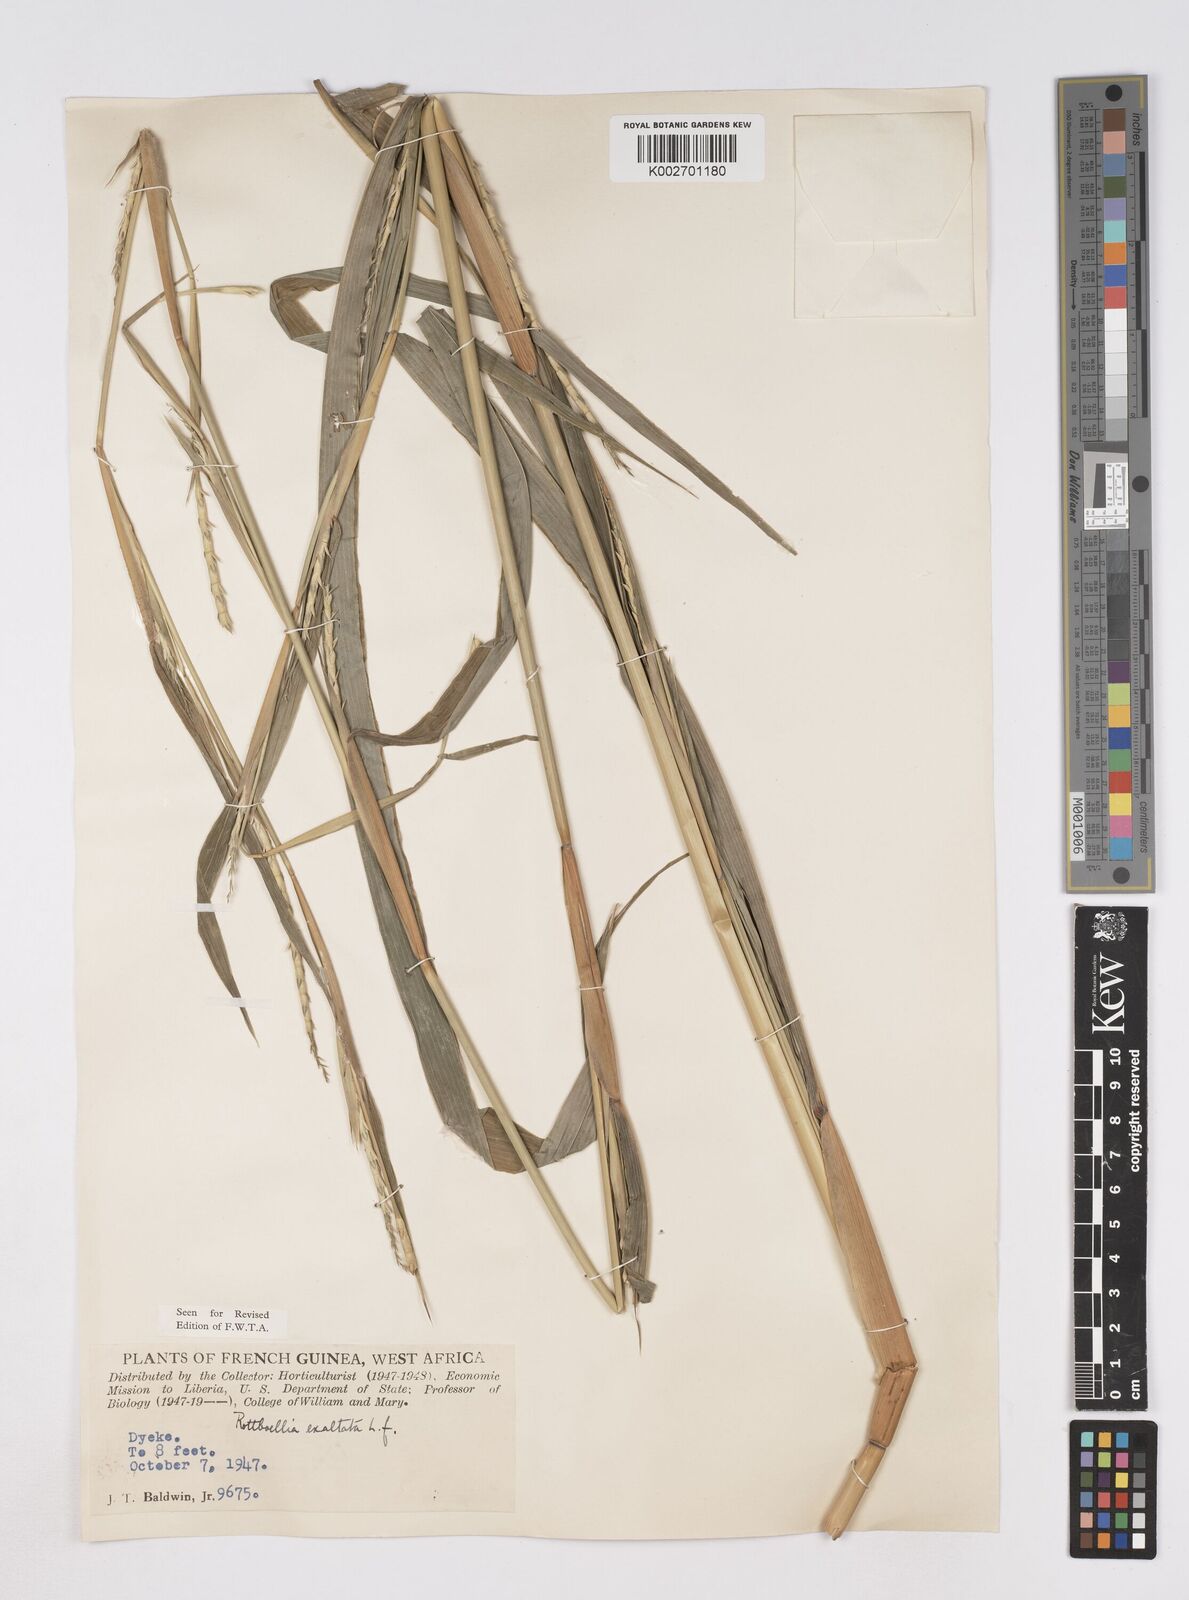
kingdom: Plantae
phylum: Tracheophyta
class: Liliopsida
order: Poales
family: Poaceae
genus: Ophiuros
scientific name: Ophiuros exaltatus
